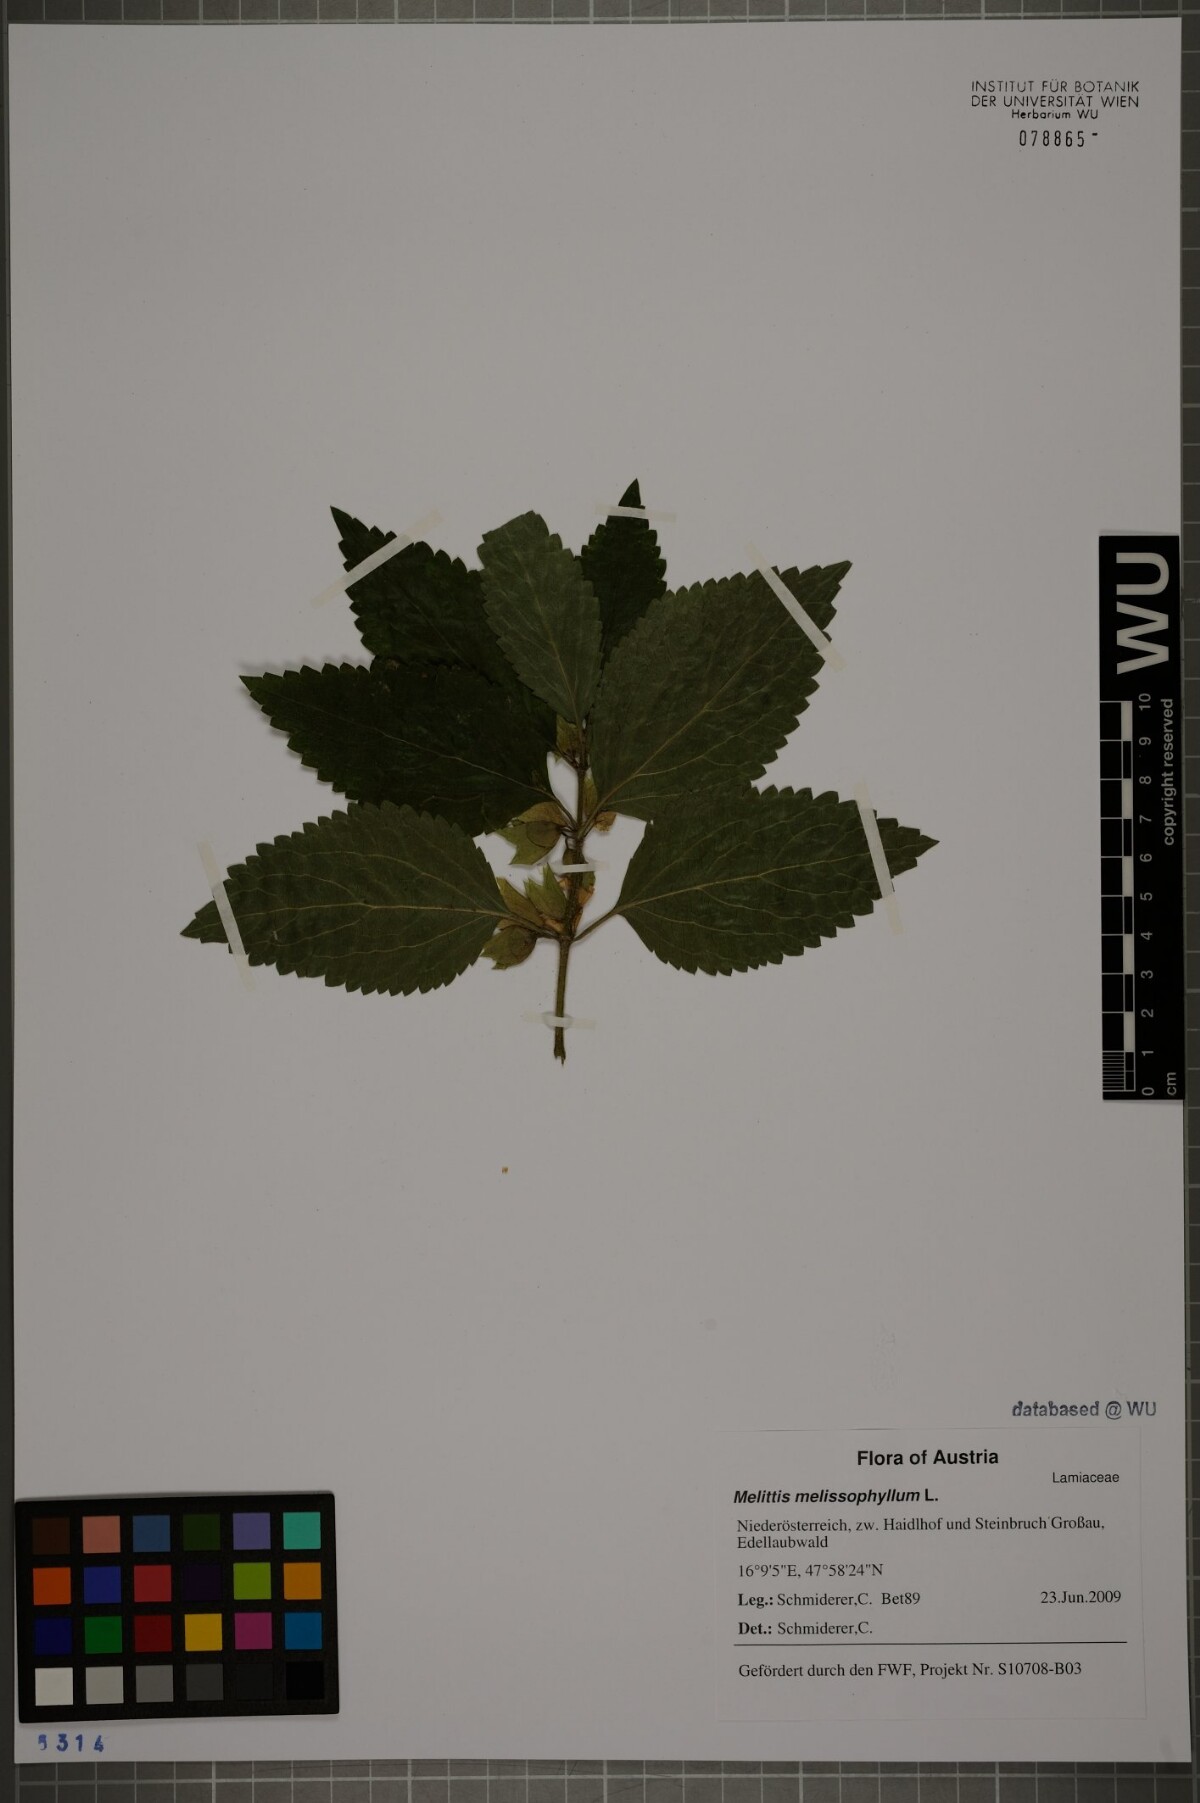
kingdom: Plantae
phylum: Tracheophyta
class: Magnoliopsida
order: Lamiales
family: Lamiaceae
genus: Melittis
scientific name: Melittis melissophyllum
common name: Bastard balm
